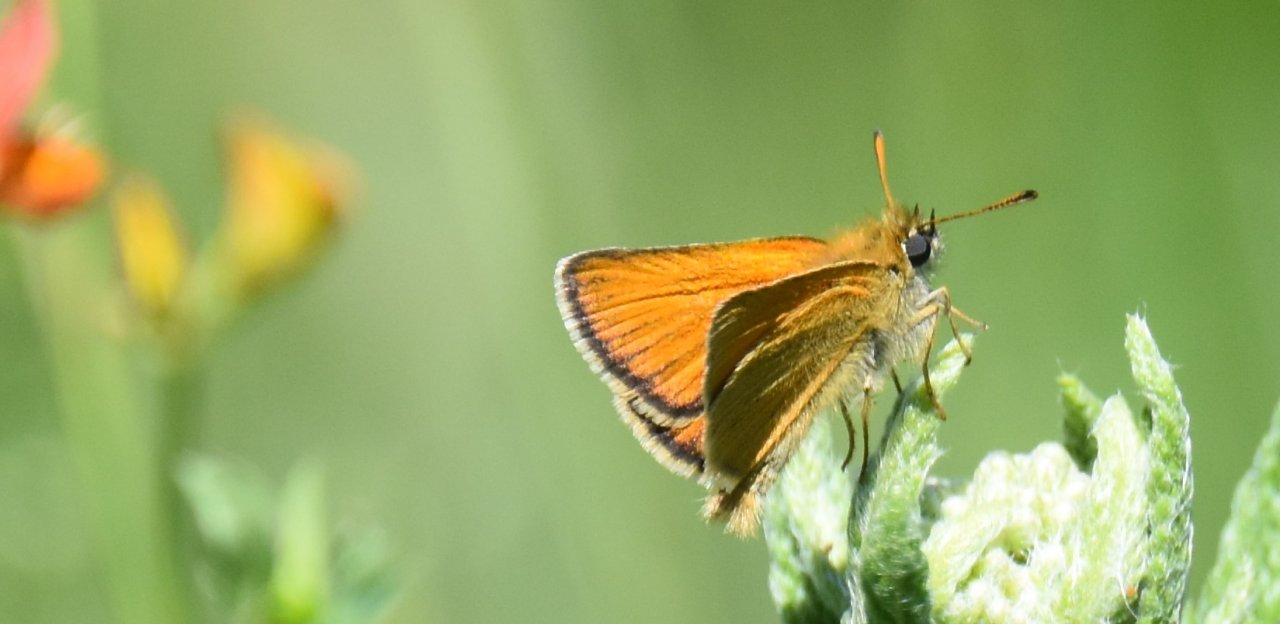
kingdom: Animalia
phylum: Arthropoda
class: Insecta
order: Lepidoptera
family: Hesperiidae
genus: Thymelicus
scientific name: Thymelicus lineola
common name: European Skipper
